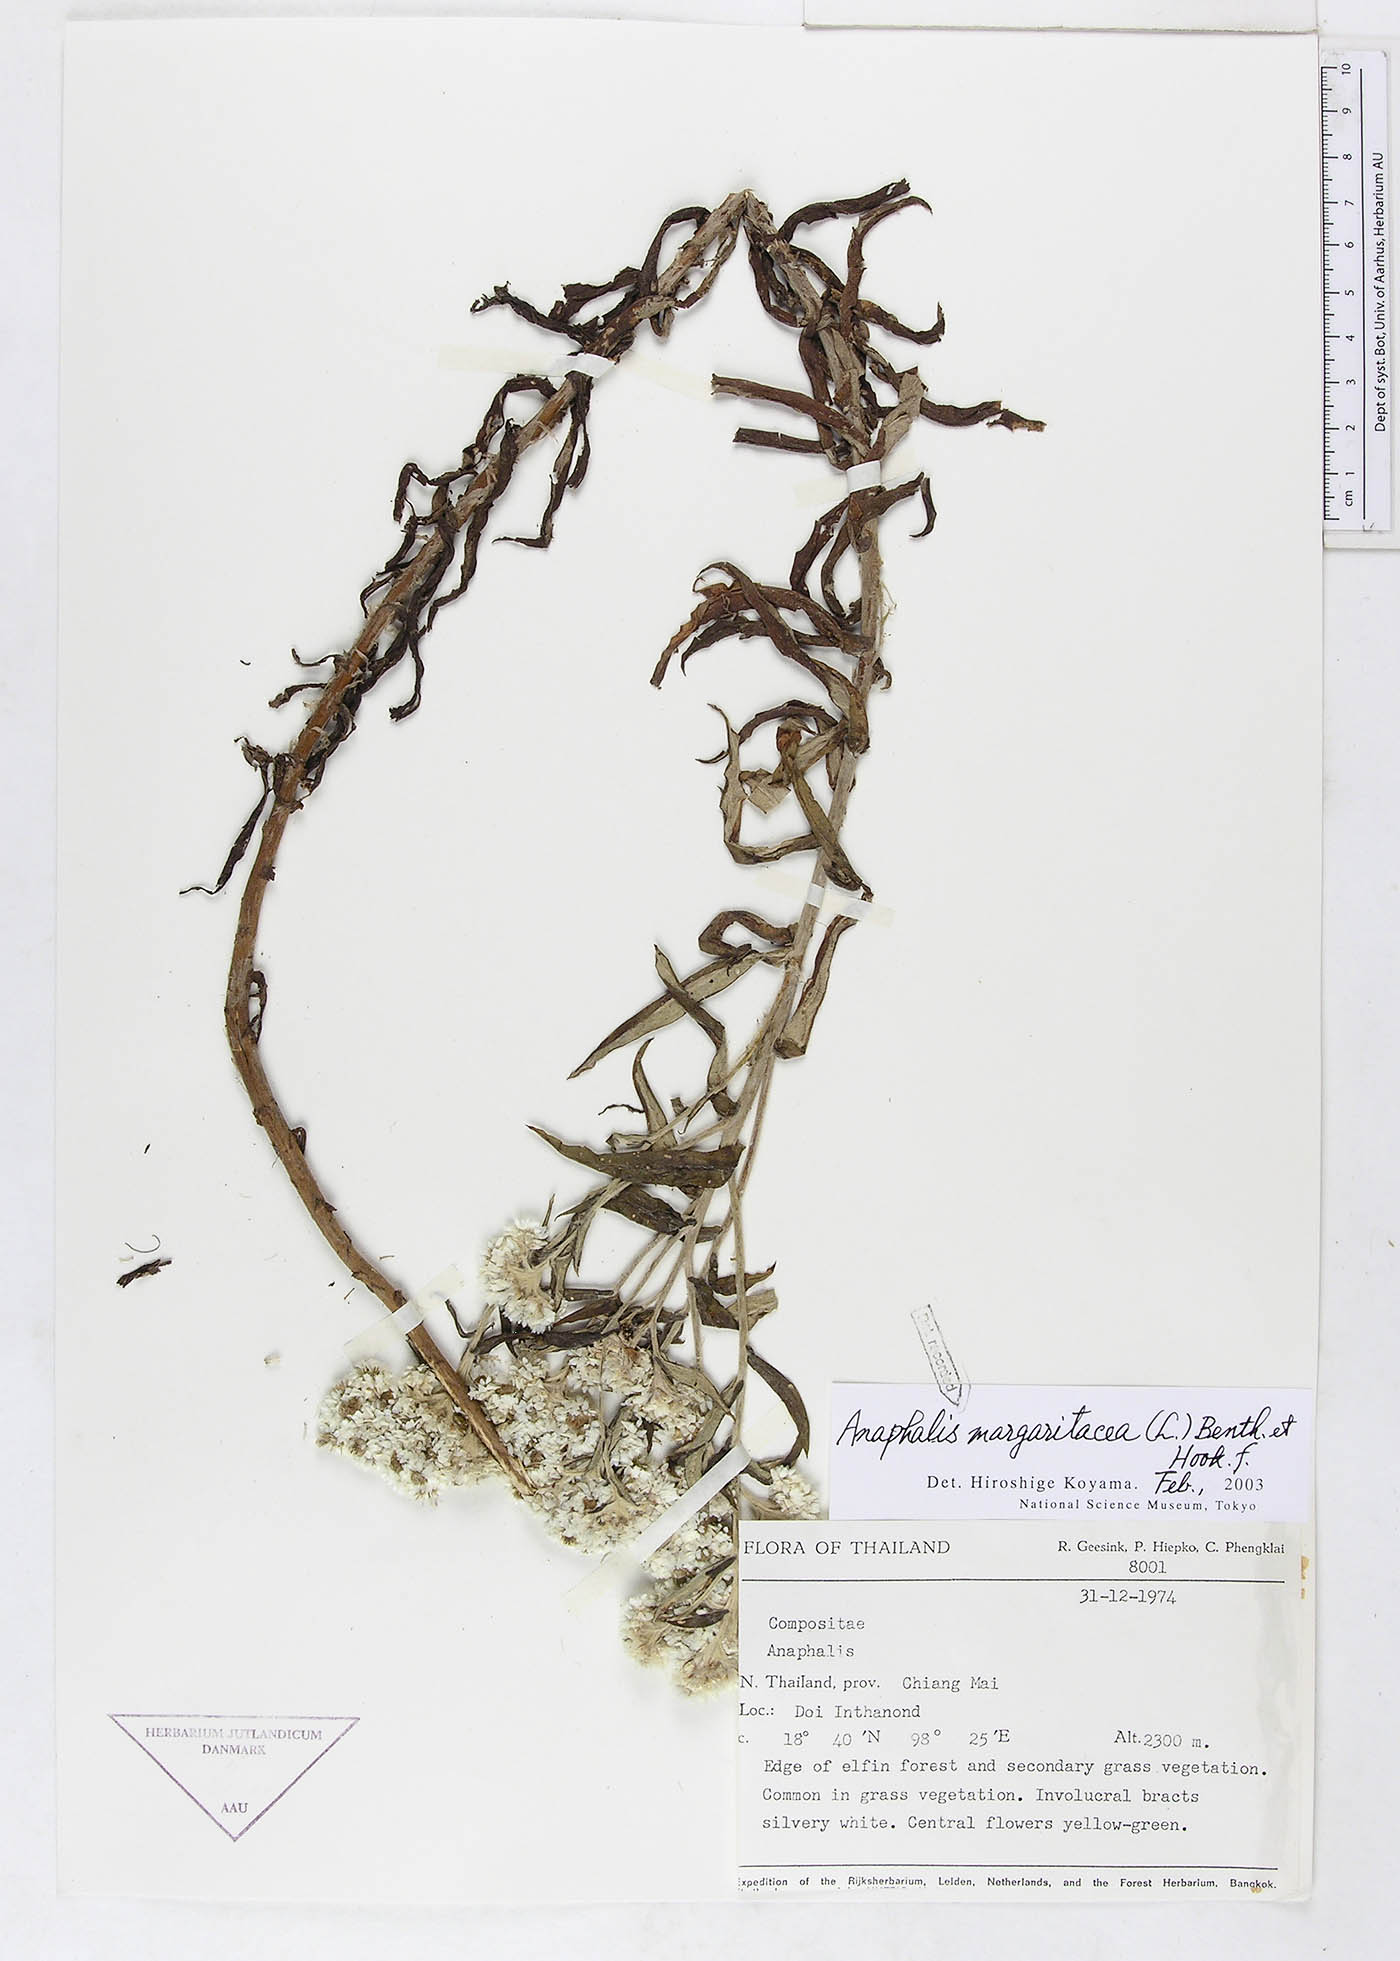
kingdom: Plantae
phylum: Tracheophyta
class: Magnoliopsida
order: Asterales
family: Asteraceae
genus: Anaphalis
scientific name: Anaphalis margaritacea
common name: Pearly everlasting
